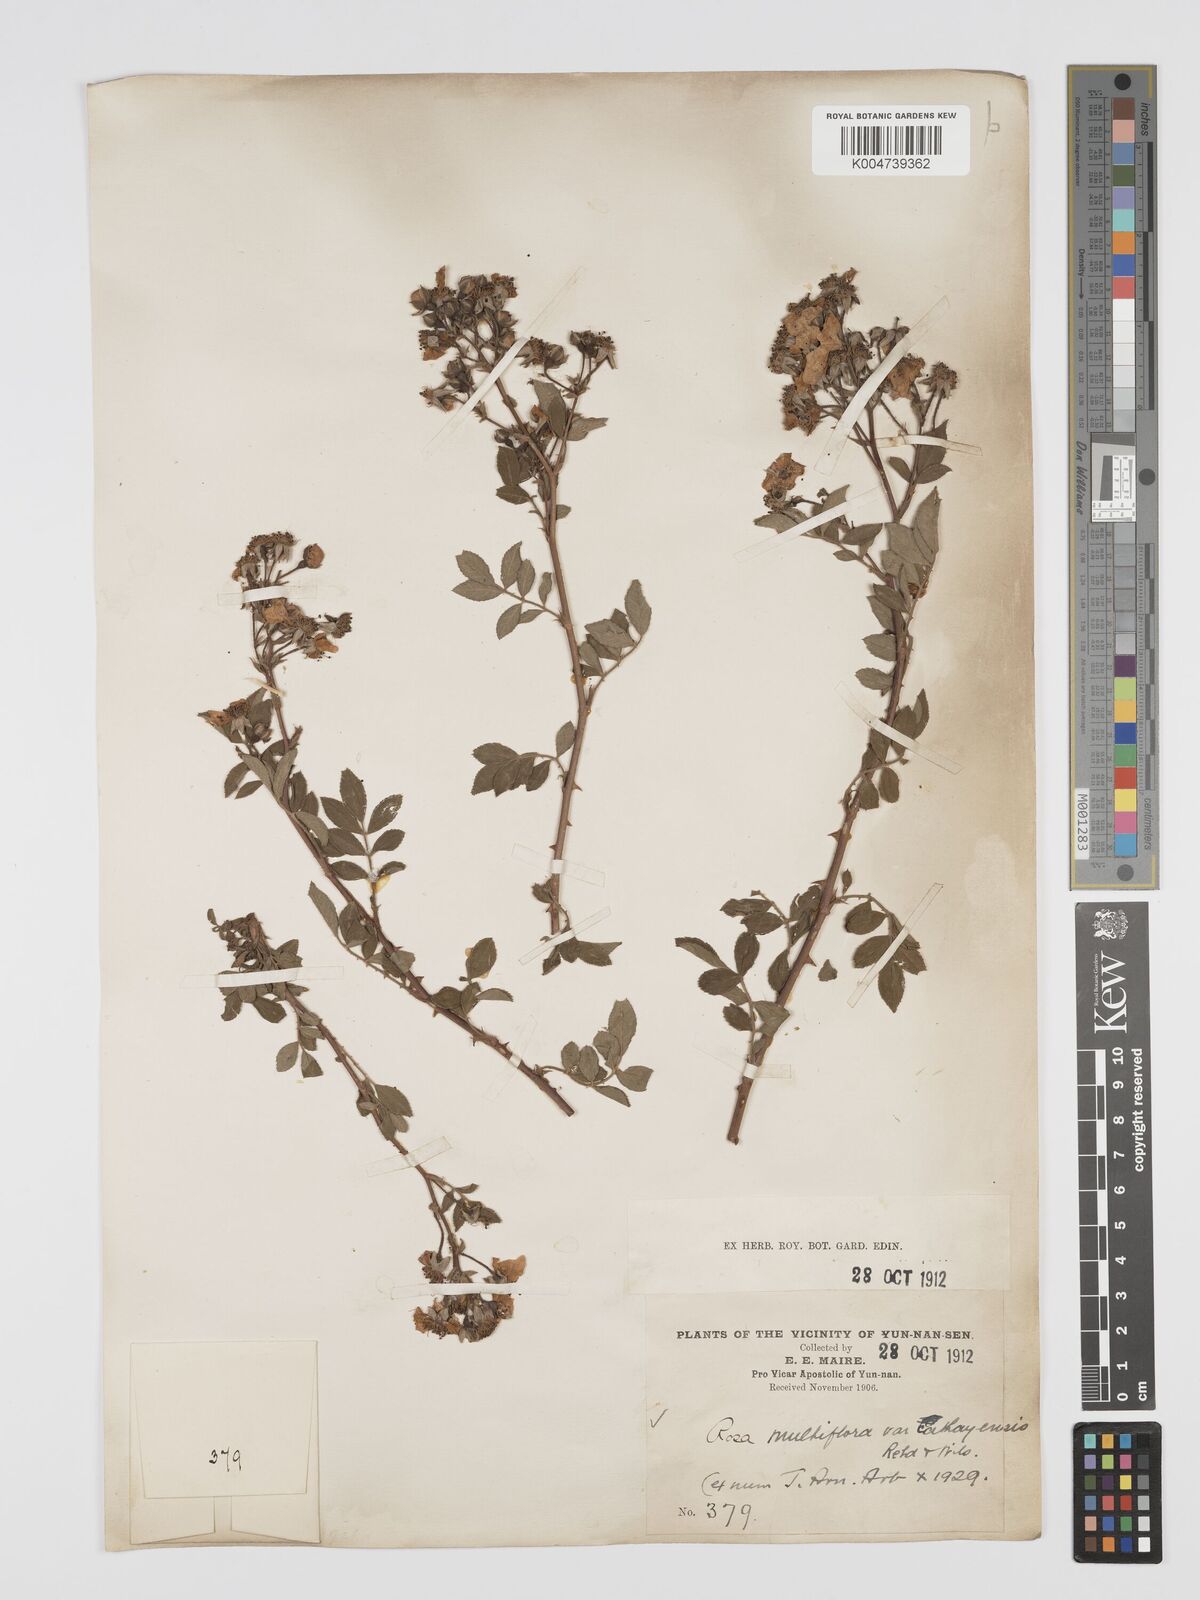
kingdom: Plantae
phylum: Tracheophyta
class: Magnoliopsida
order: Rosales
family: Rosaceae
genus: Rosa
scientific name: Rosa
